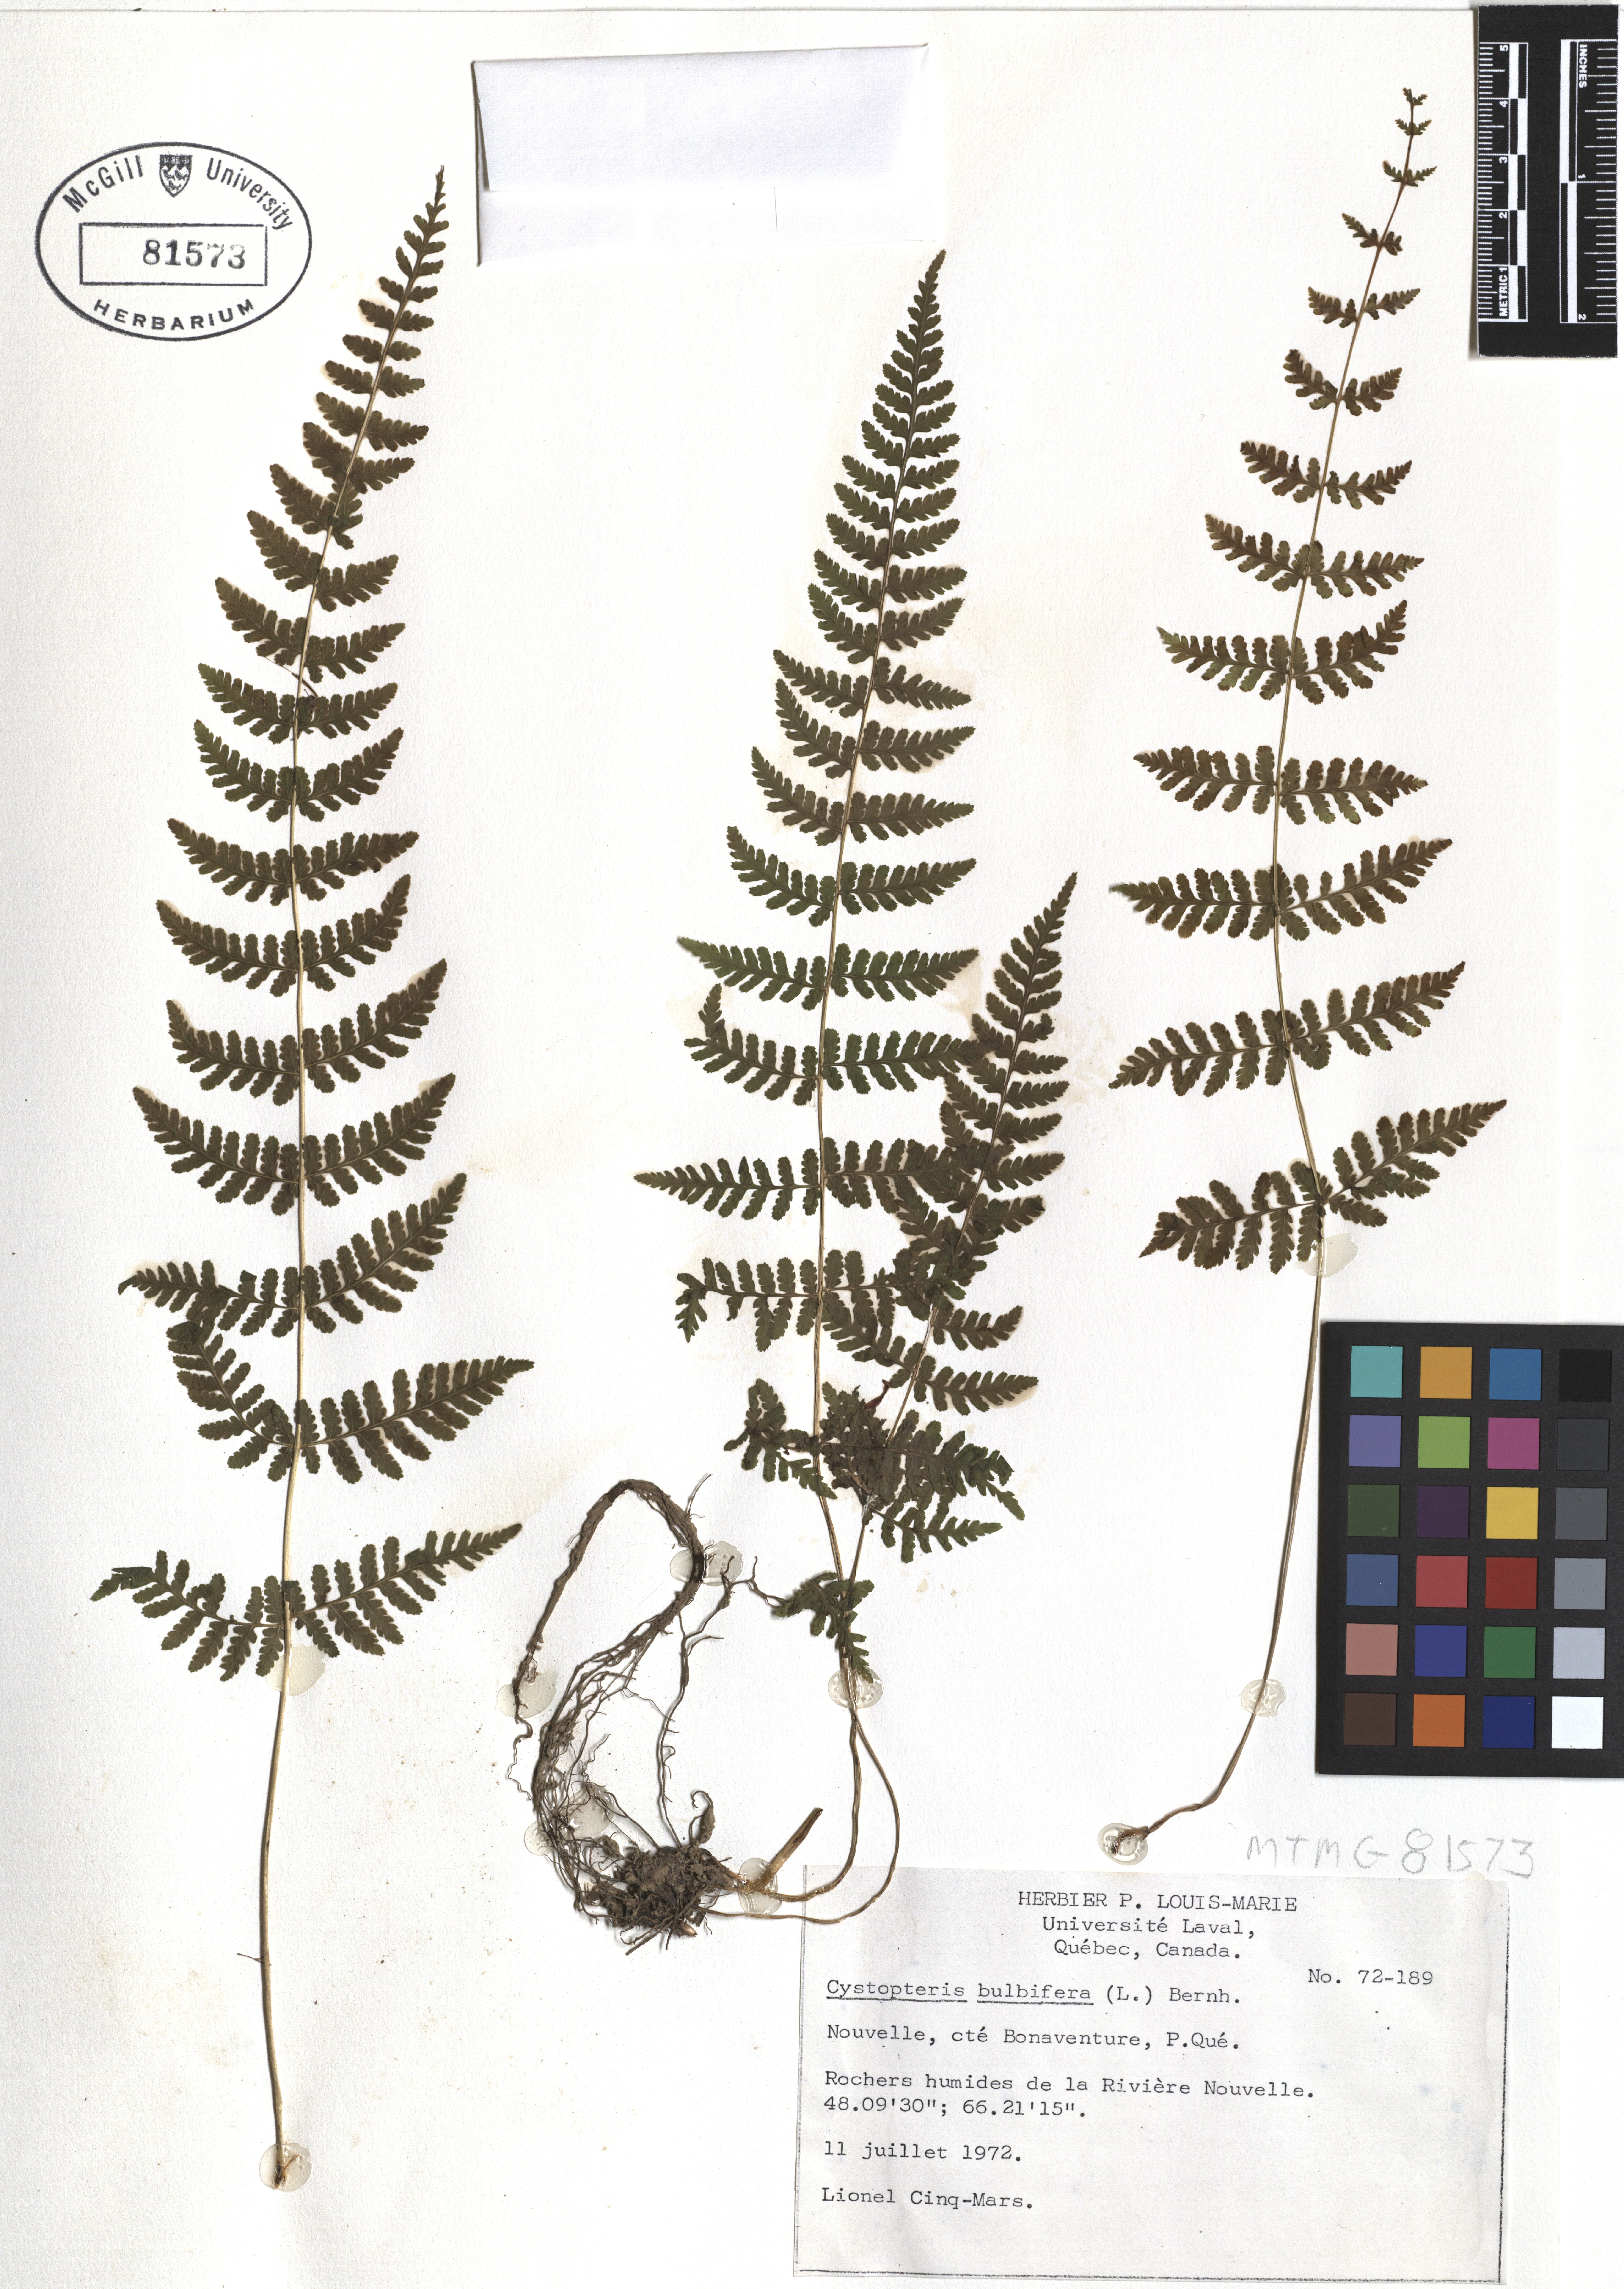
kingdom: Plantae
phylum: Tracheophyta
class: Polypodiopsida
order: Polypodiales
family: Cystopteridaceae
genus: Cystopteris
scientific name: Cystopteris bulbifera
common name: Bulblet bladder fern
